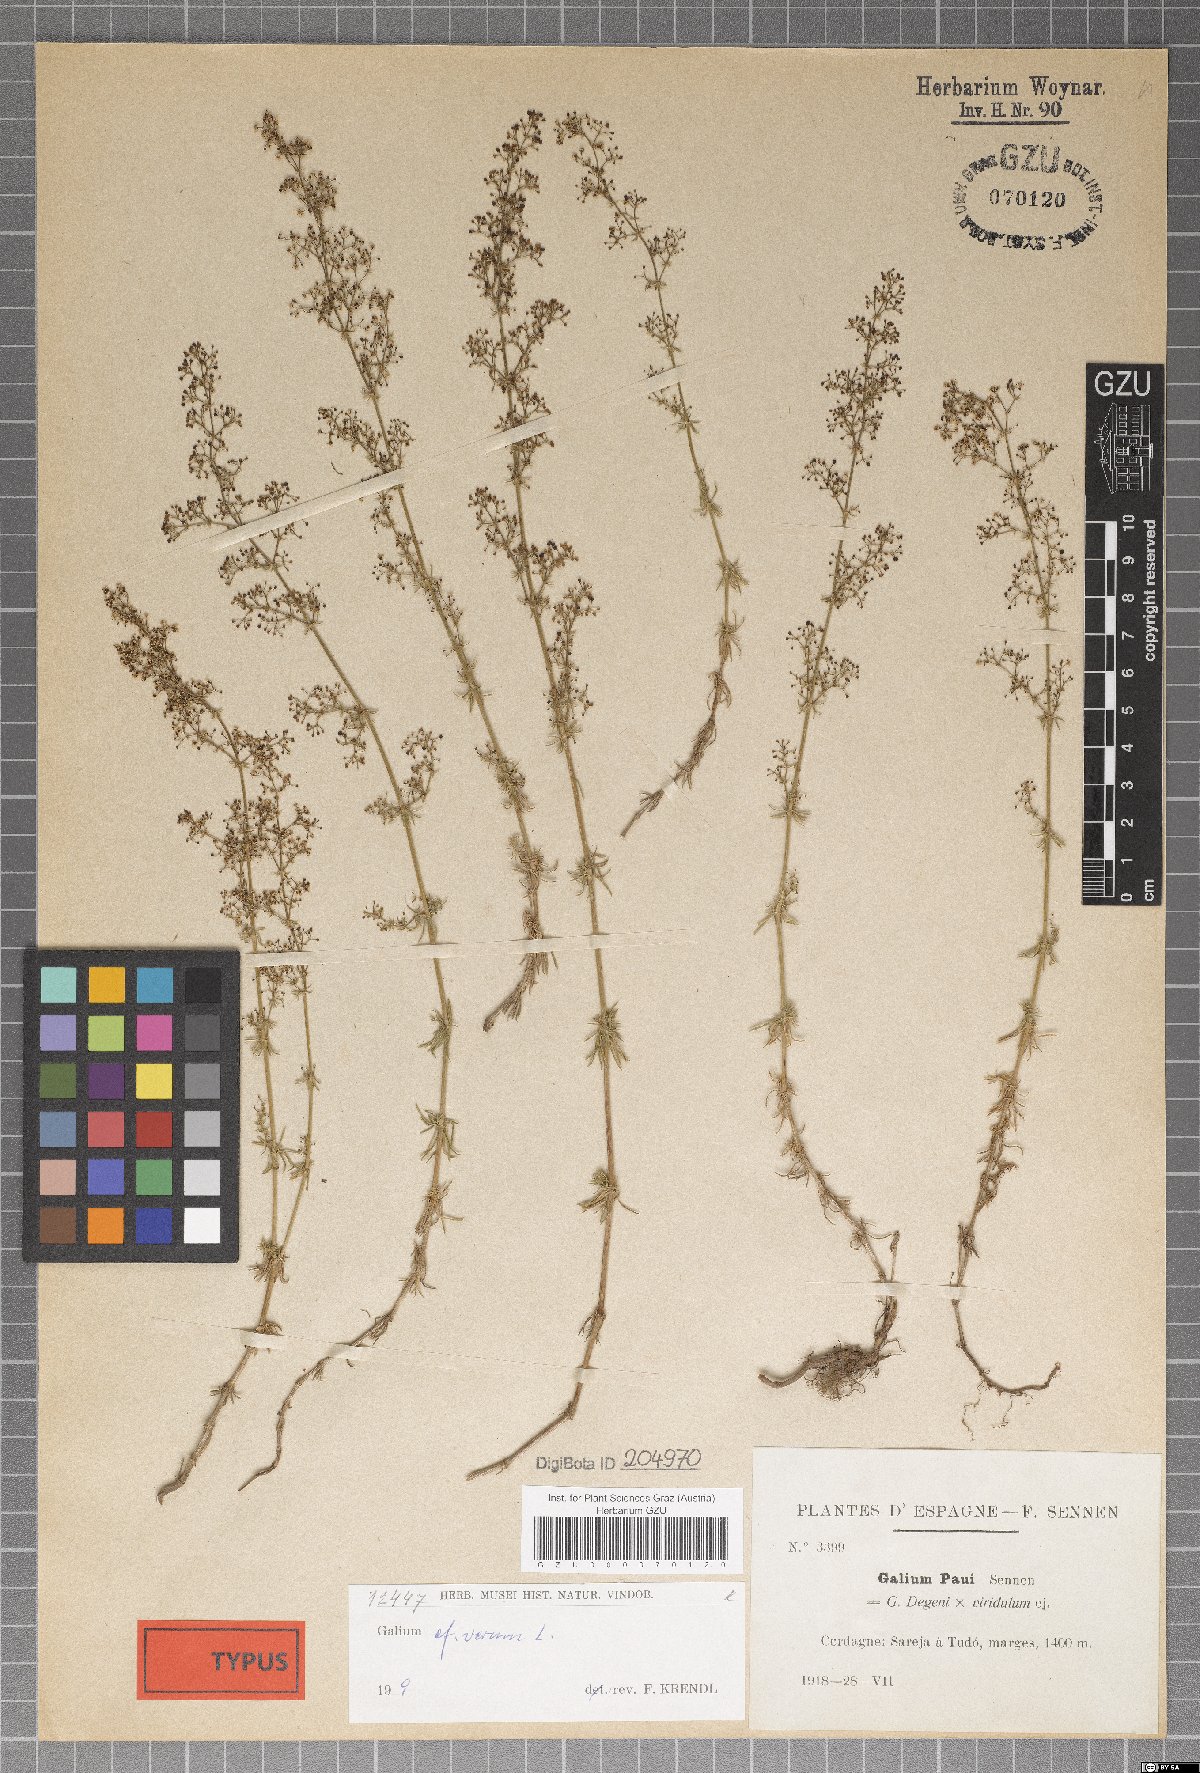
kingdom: Plantae
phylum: Tracheophyta
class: Magnoliopsida
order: Gentianales
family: Rubiaceae
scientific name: Rubiaceae
